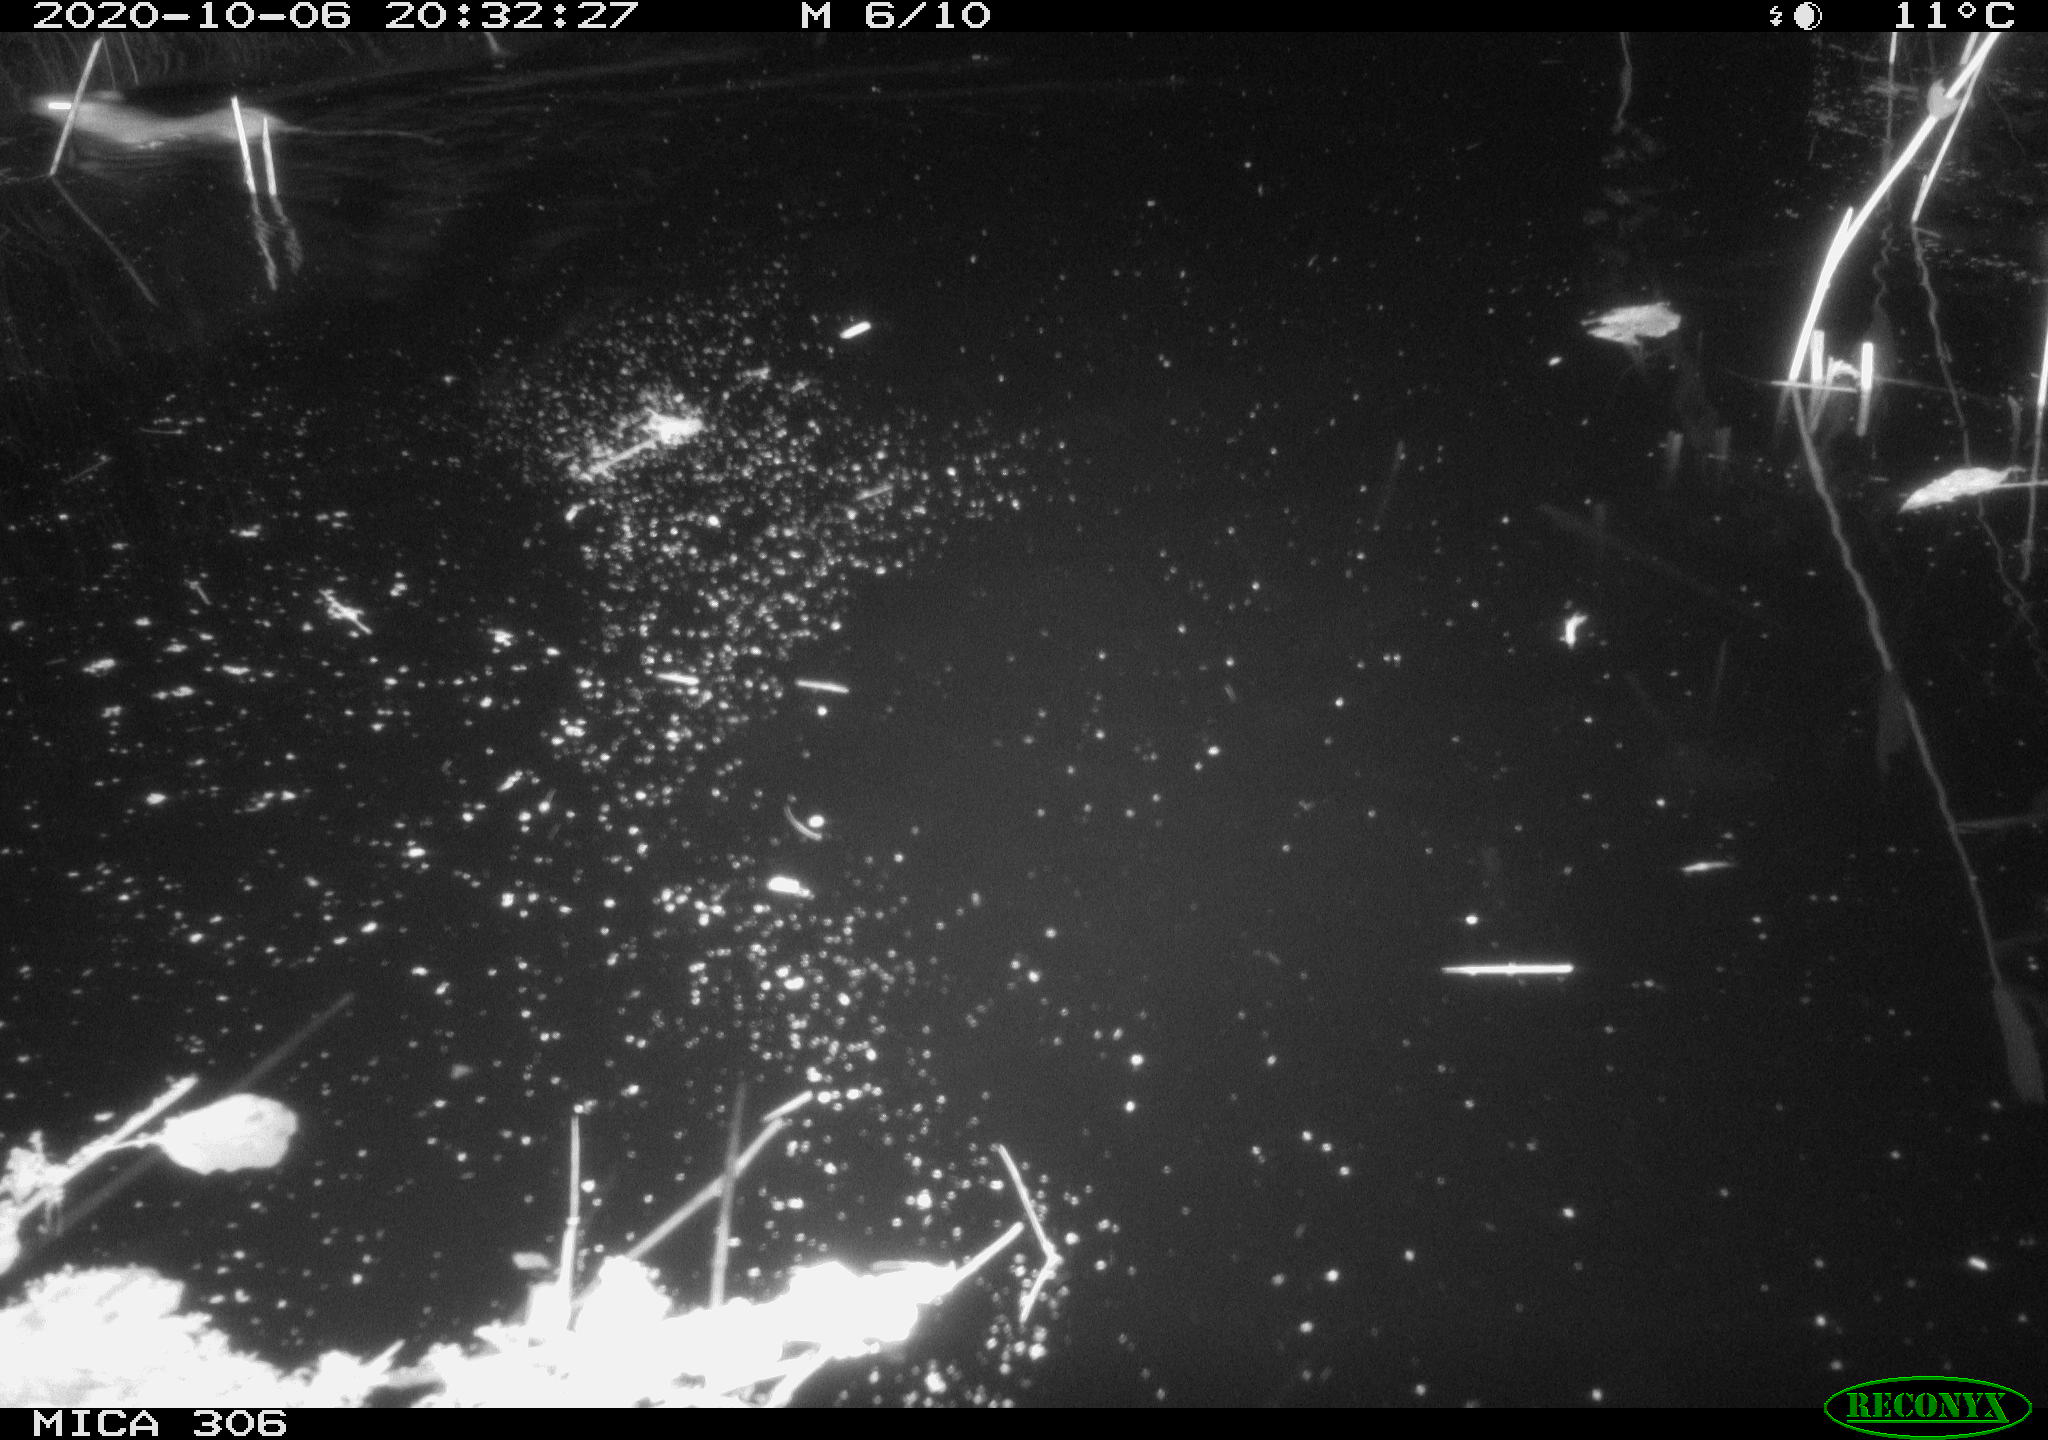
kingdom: Animalia
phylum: Chordata
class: Mammalia
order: Rodentia
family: Muridae
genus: Rattus
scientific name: Rattus norvegicus
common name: Brown rat
